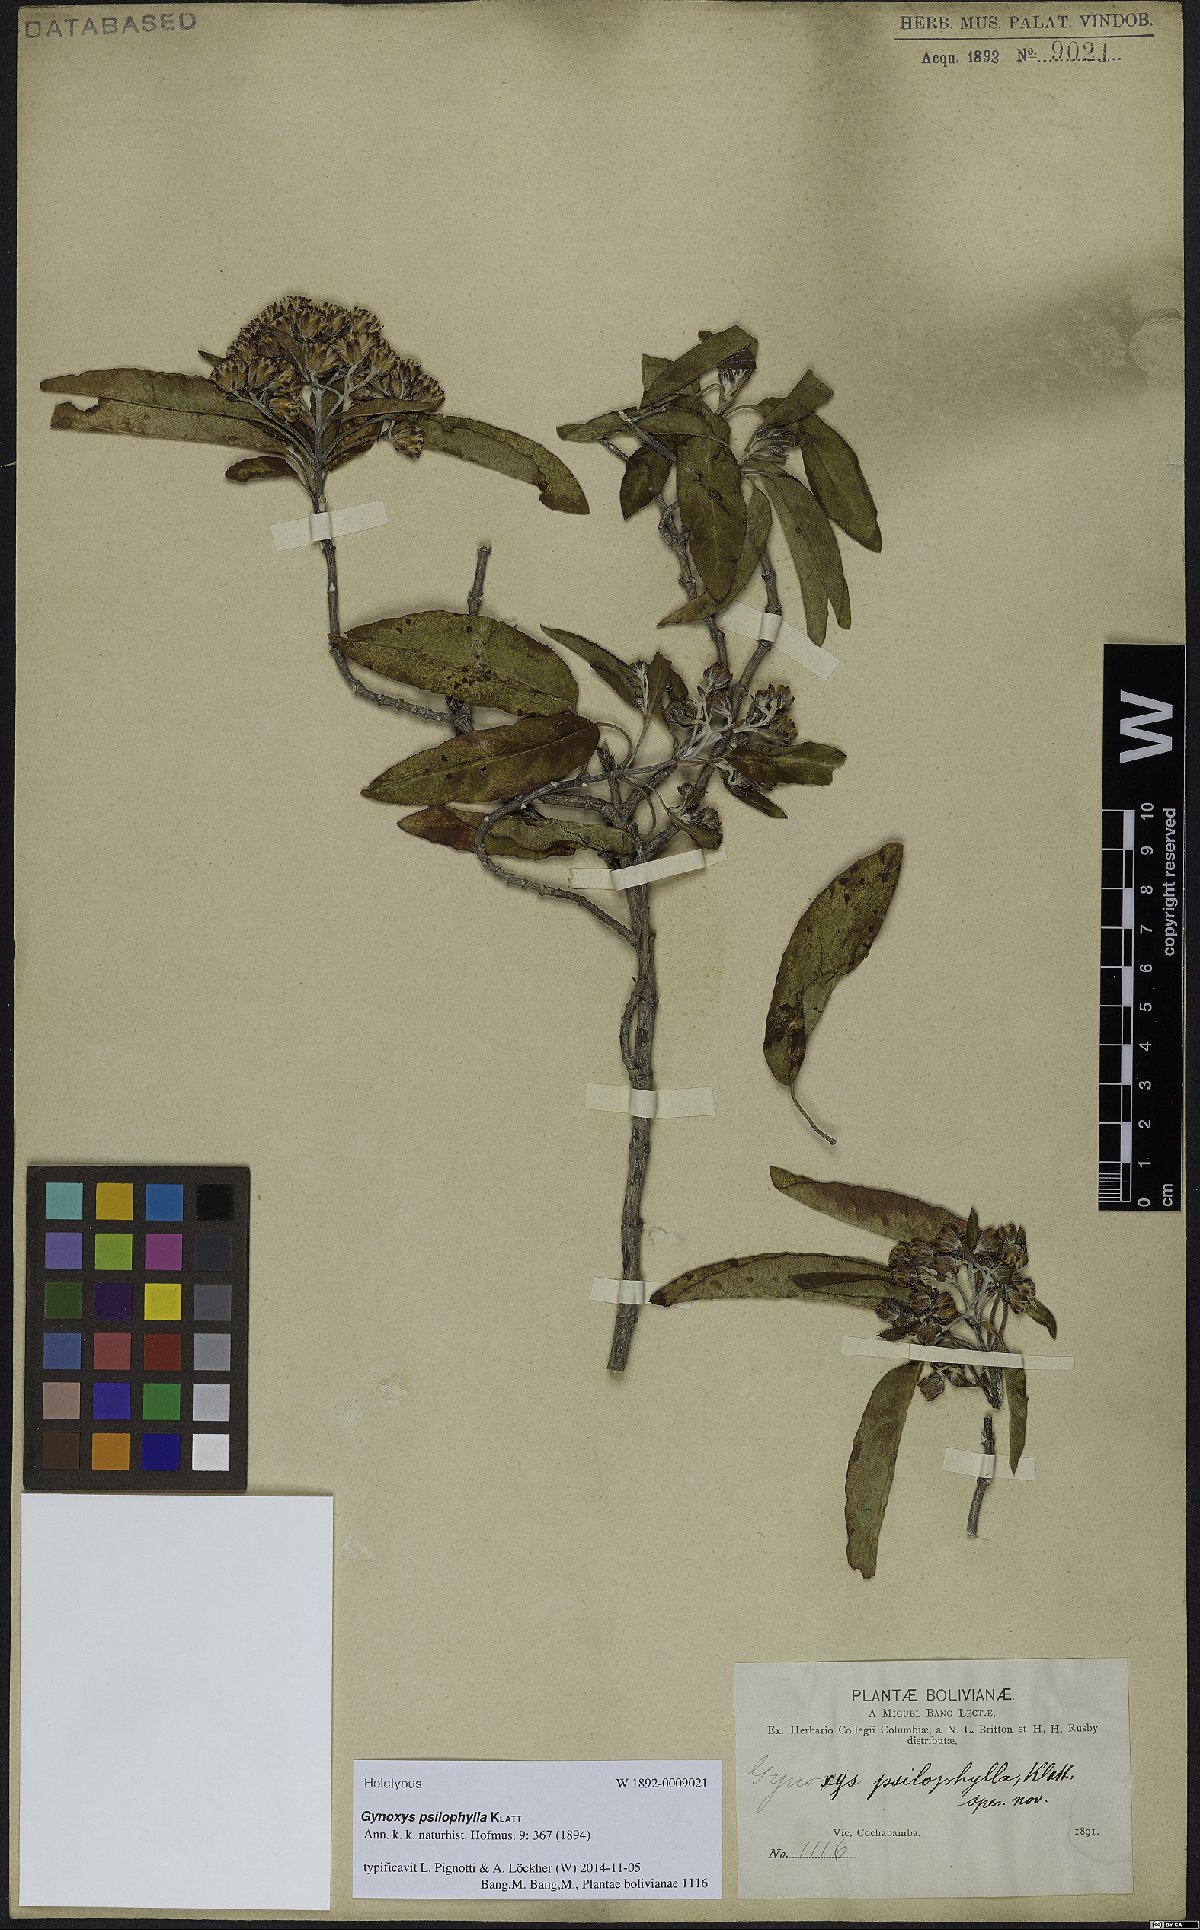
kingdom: Plantae
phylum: Tracheophyta
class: Magnoliopsida
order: Asterales
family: Asteraceae
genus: Gynoxys
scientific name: Gynoxys psilophylla
